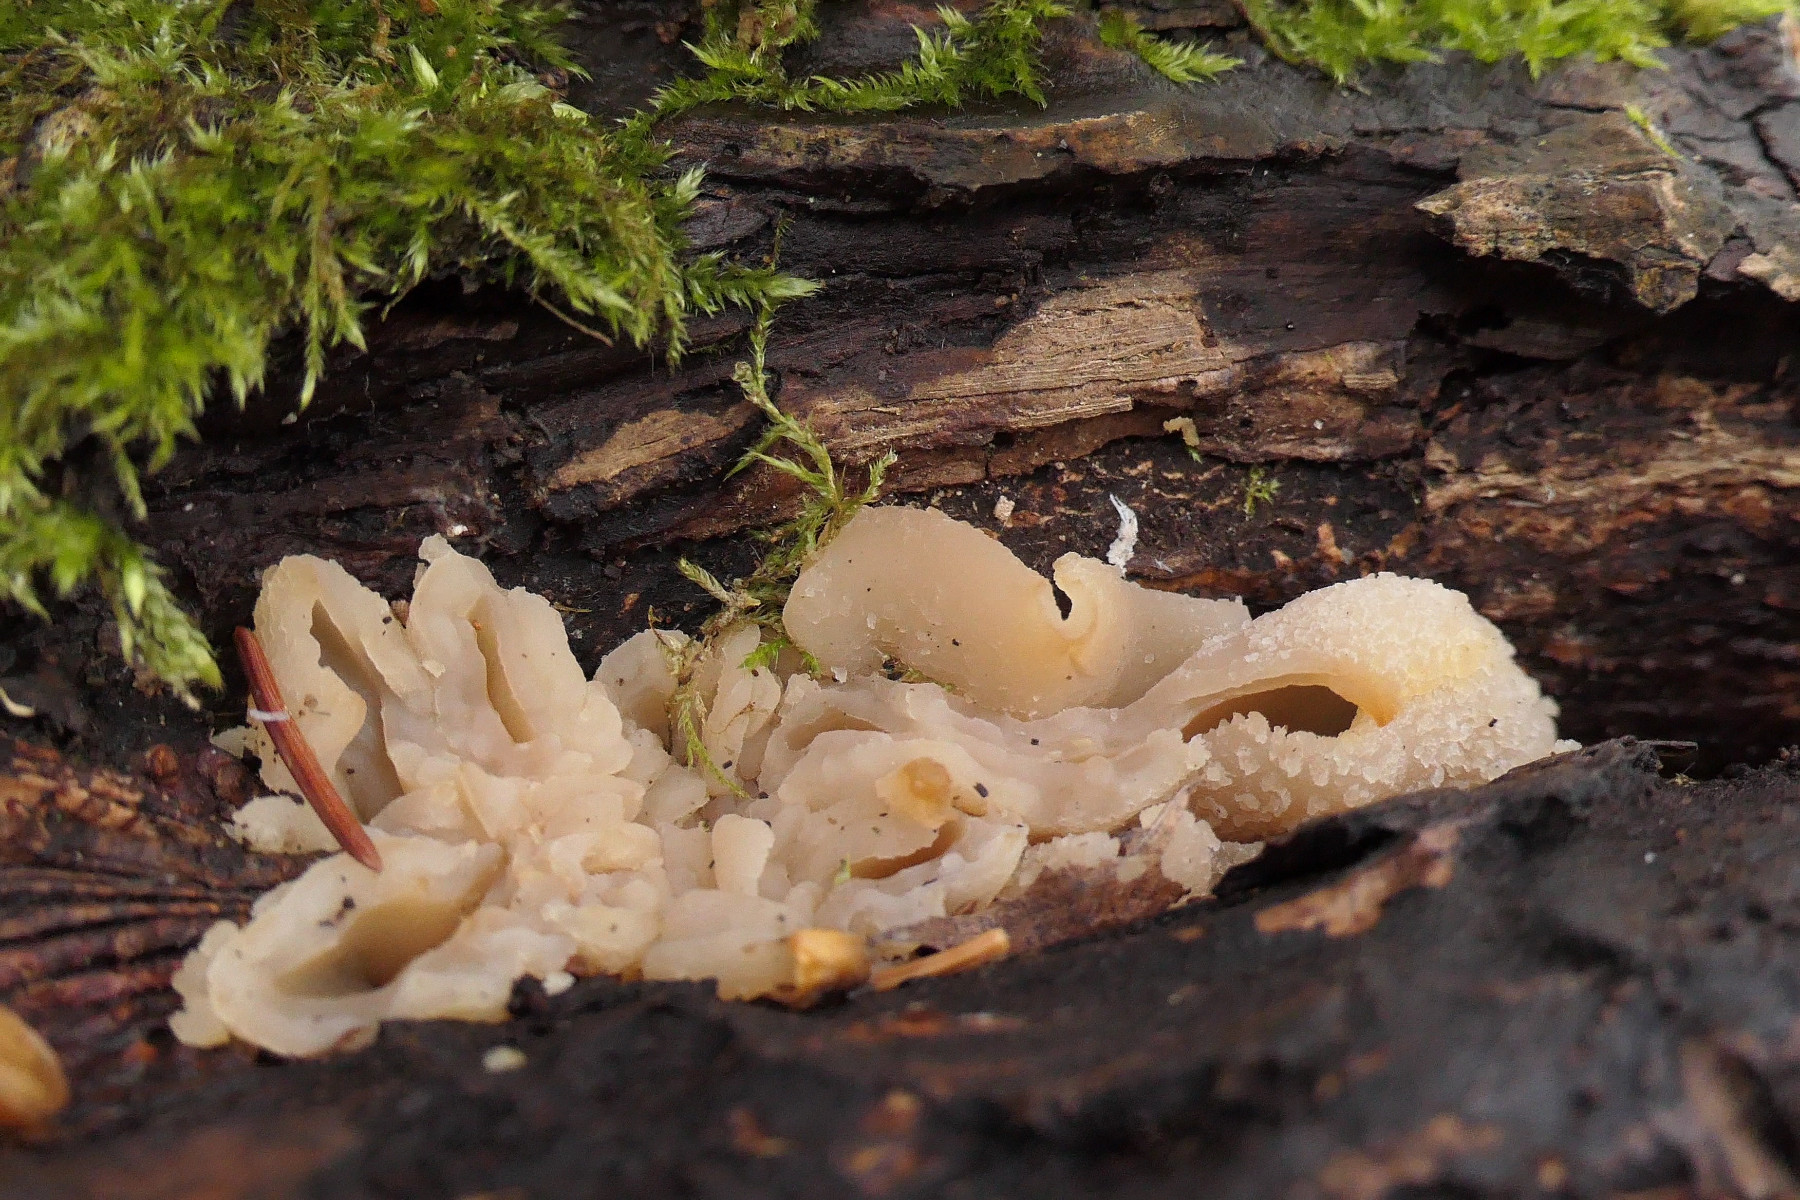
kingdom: Fungi
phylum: Ascomycota
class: Pezizomycetes
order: Pezizales
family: Pezizaceae
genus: Peziza
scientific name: Peziza varia
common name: Ved-bægersvamp
